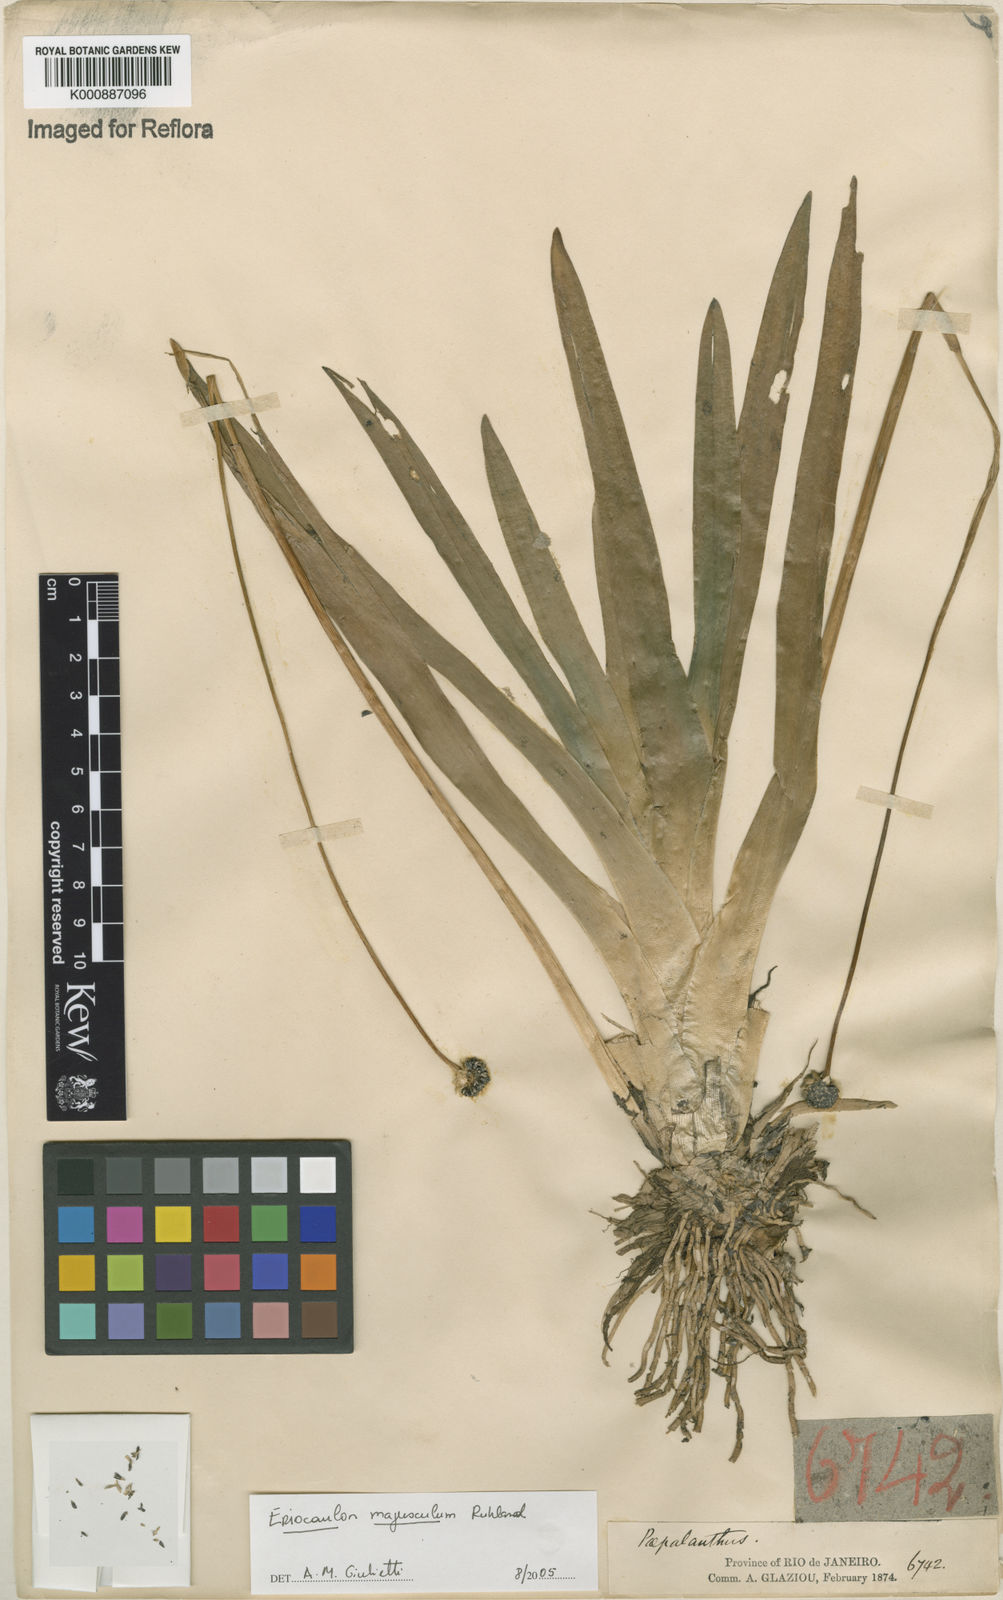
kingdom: Plantae
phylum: Tracheophyta
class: Liliopsida
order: Poales
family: Eriocaulaceae
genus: Eriocaulon
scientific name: Eriocaulon majusculum
